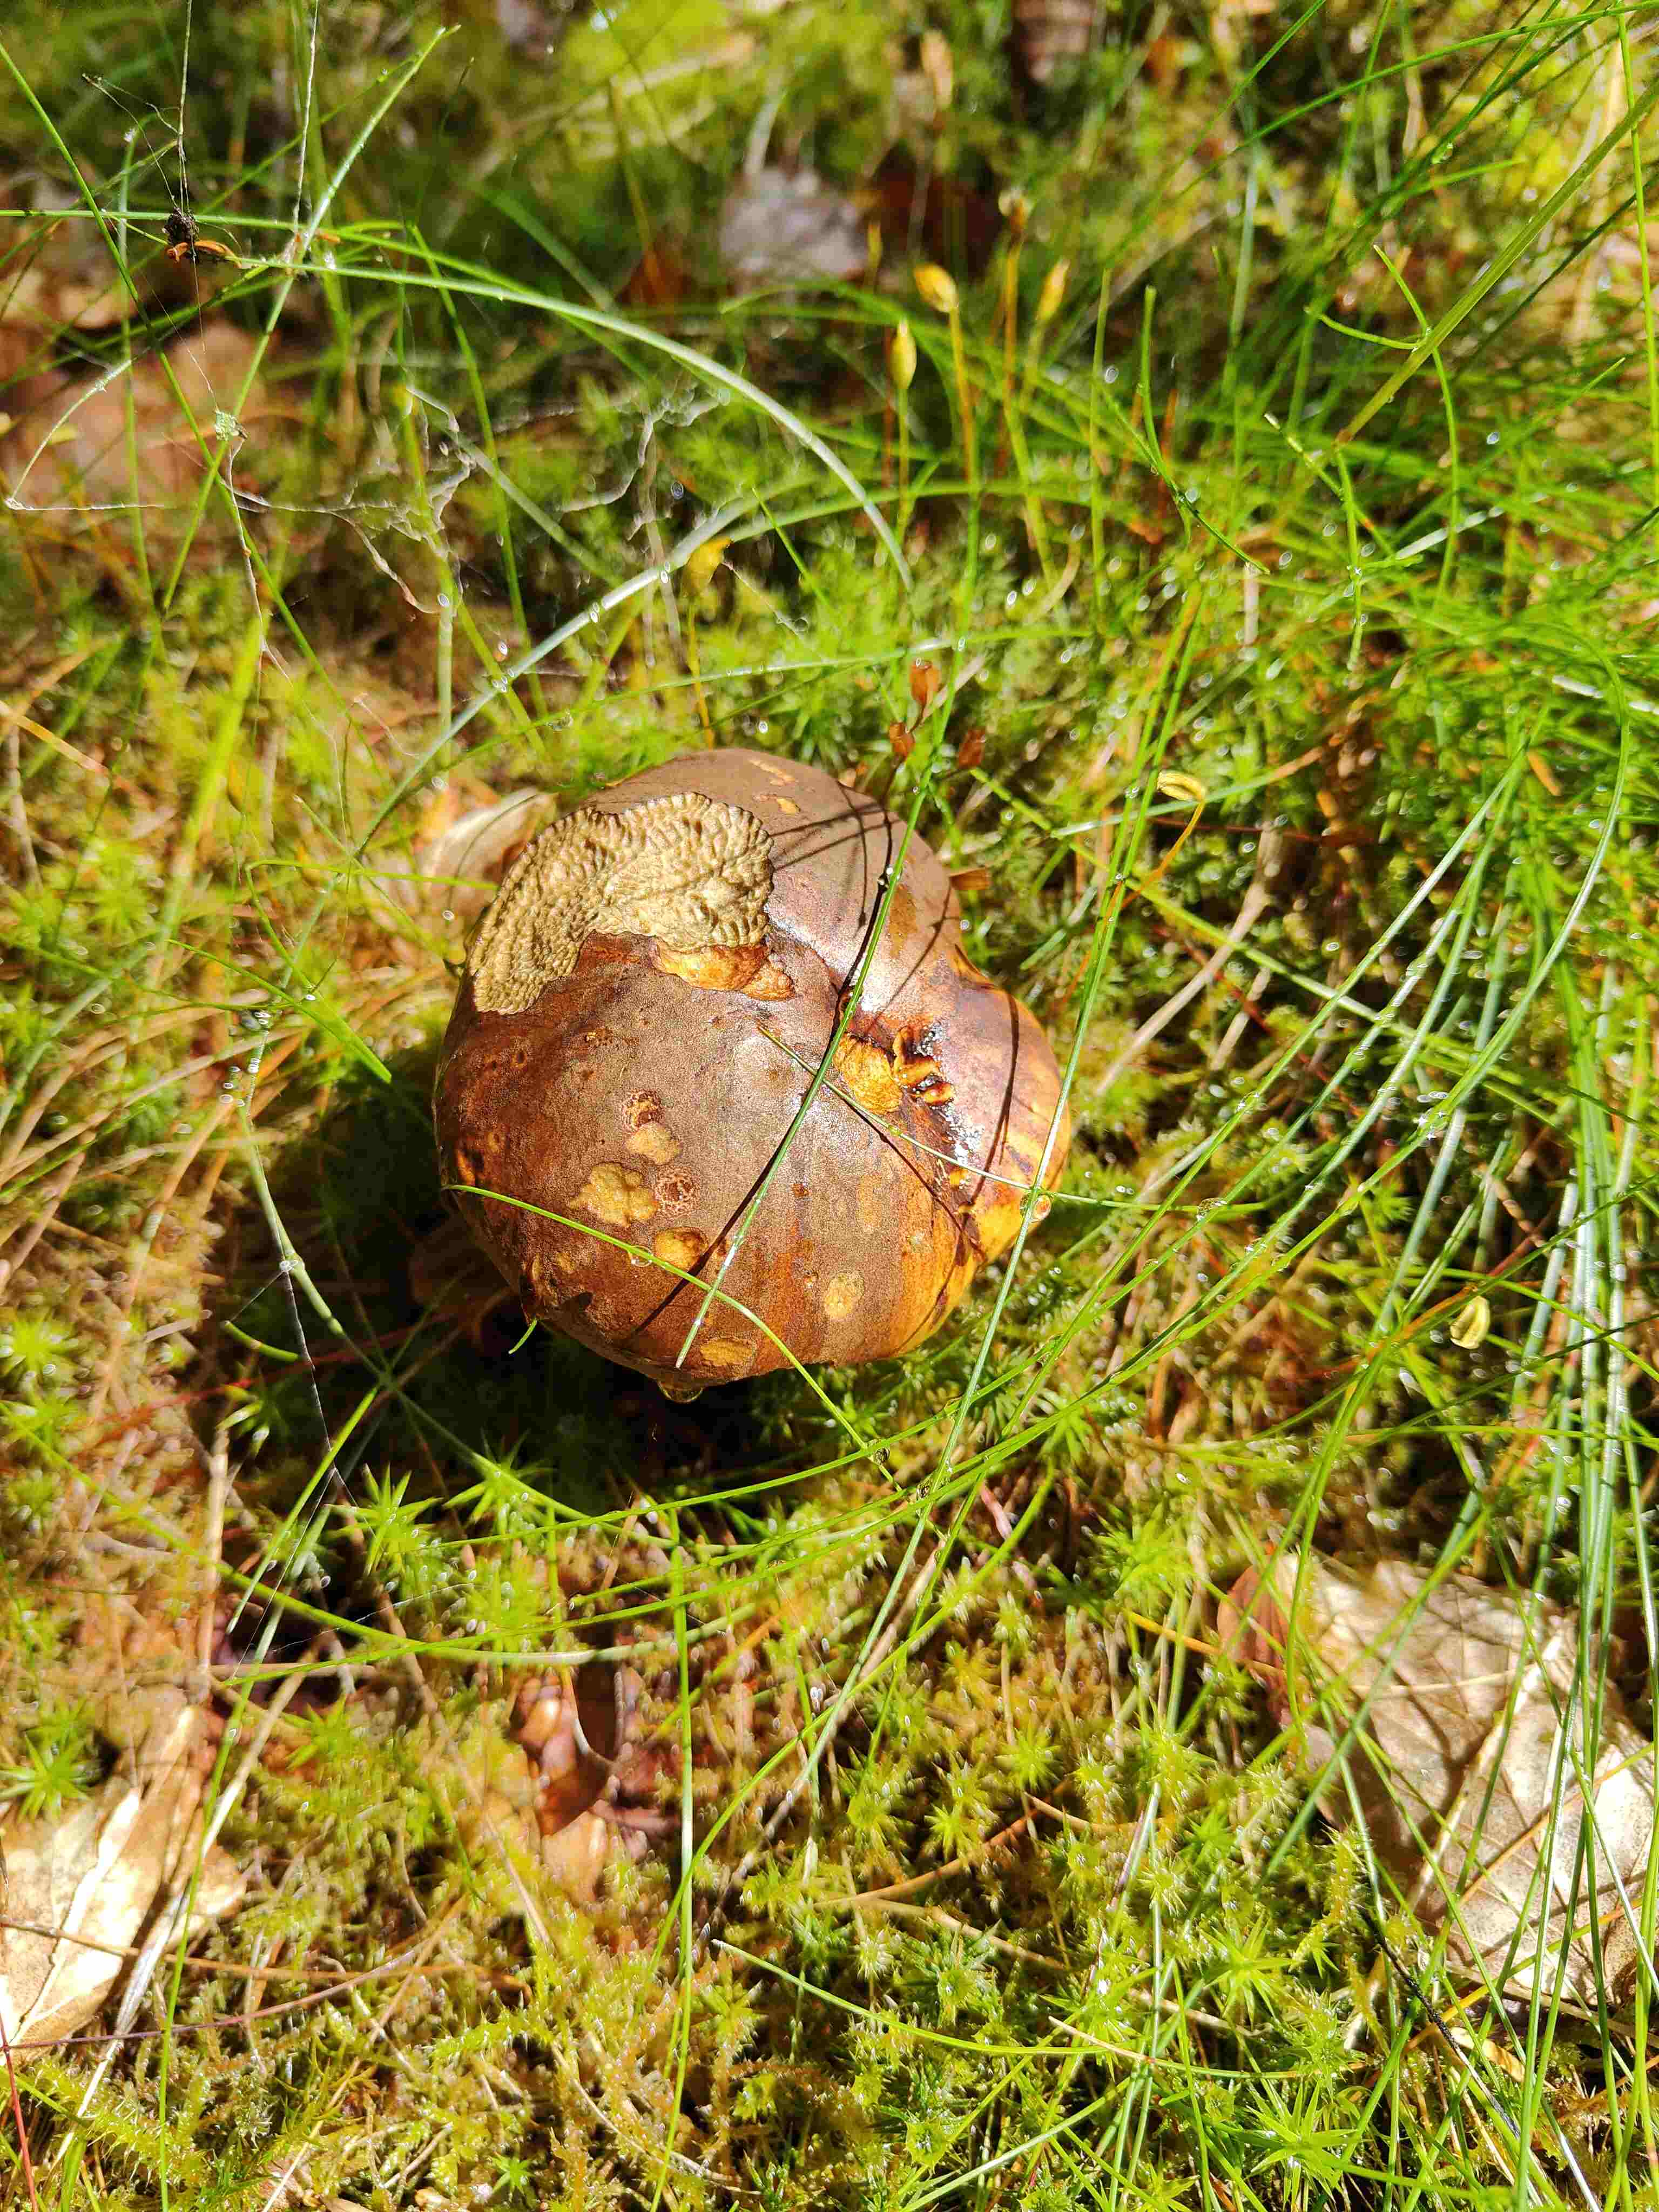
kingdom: Fungi
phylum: Basidiomycota
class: Agaricomycetes
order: Boletales
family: Boletaceae
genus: Neoboletus
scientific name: Neoboletus erythropus
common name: punktstokket indigorørhat
